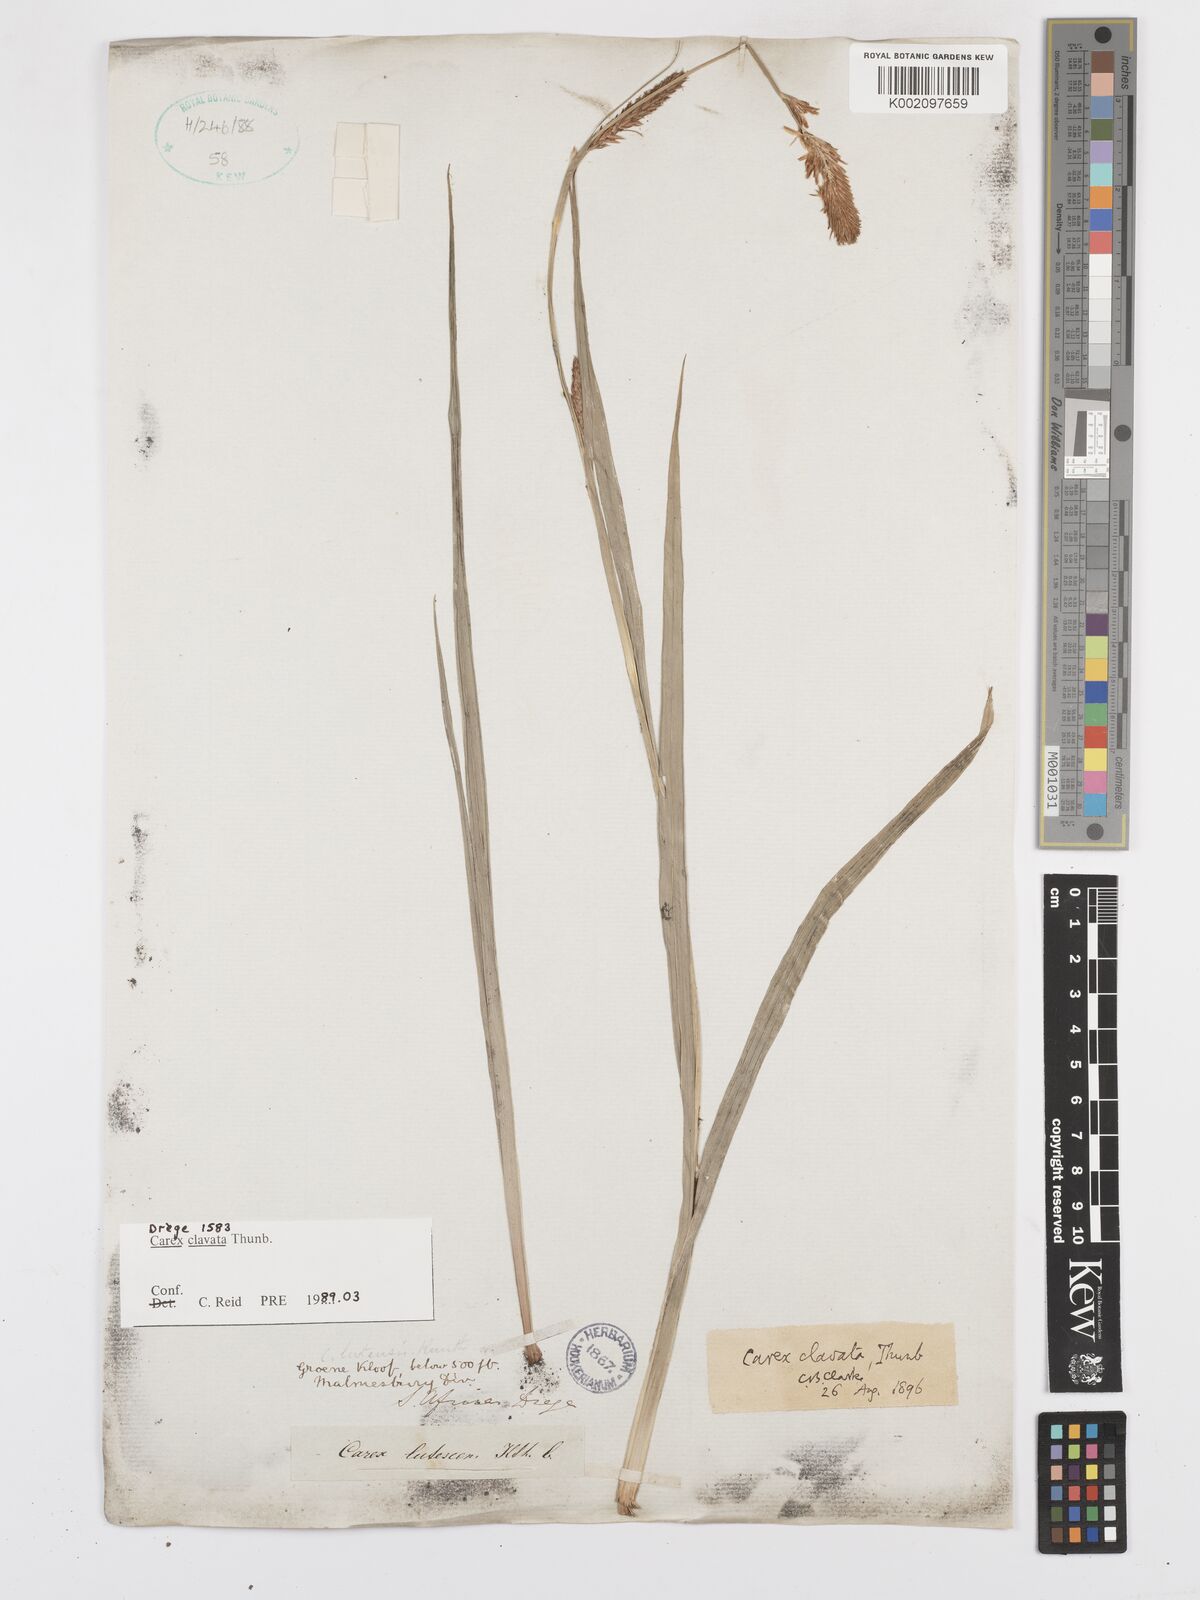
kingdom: Plantae
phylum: Tracheophyta
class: Liliopsida
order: Poales
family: Cyperaceae
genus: Carex
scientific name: Carex clavata
